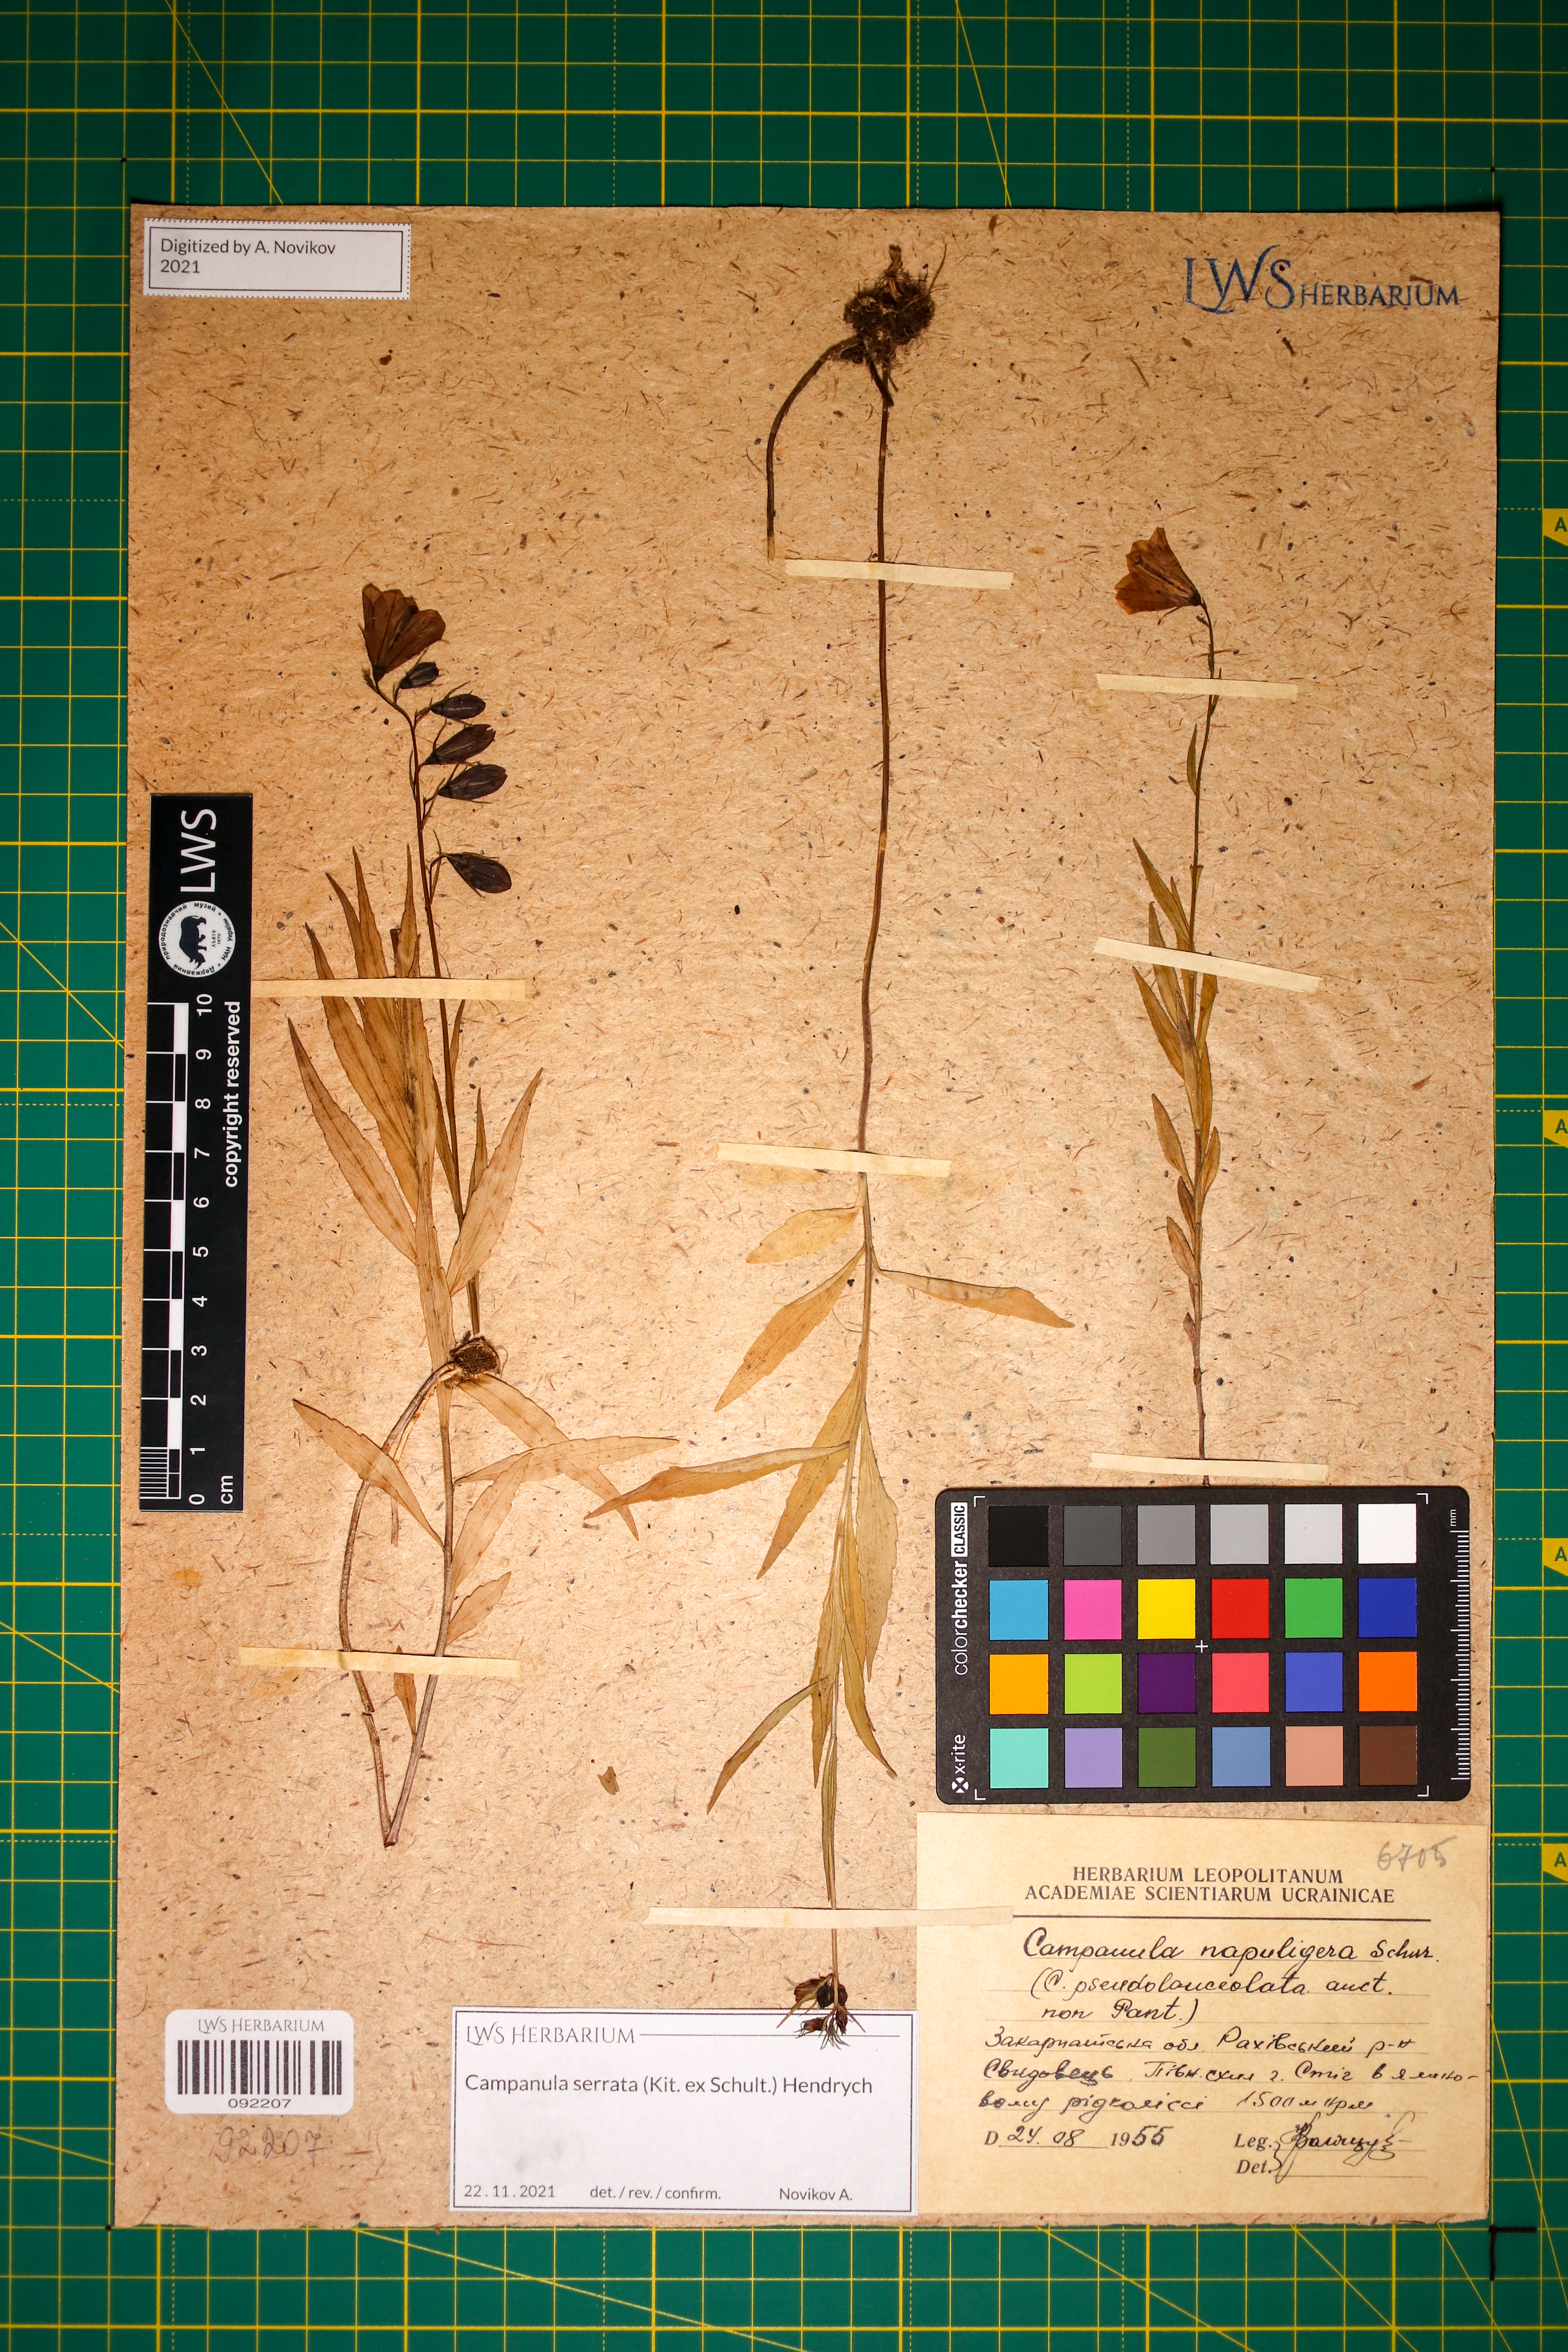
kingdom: Plantae
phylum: Tracheophyta
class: Magnoliopsida
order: Asterales
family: Campanulaceae
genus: Campanula
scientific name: Campanula serrata
